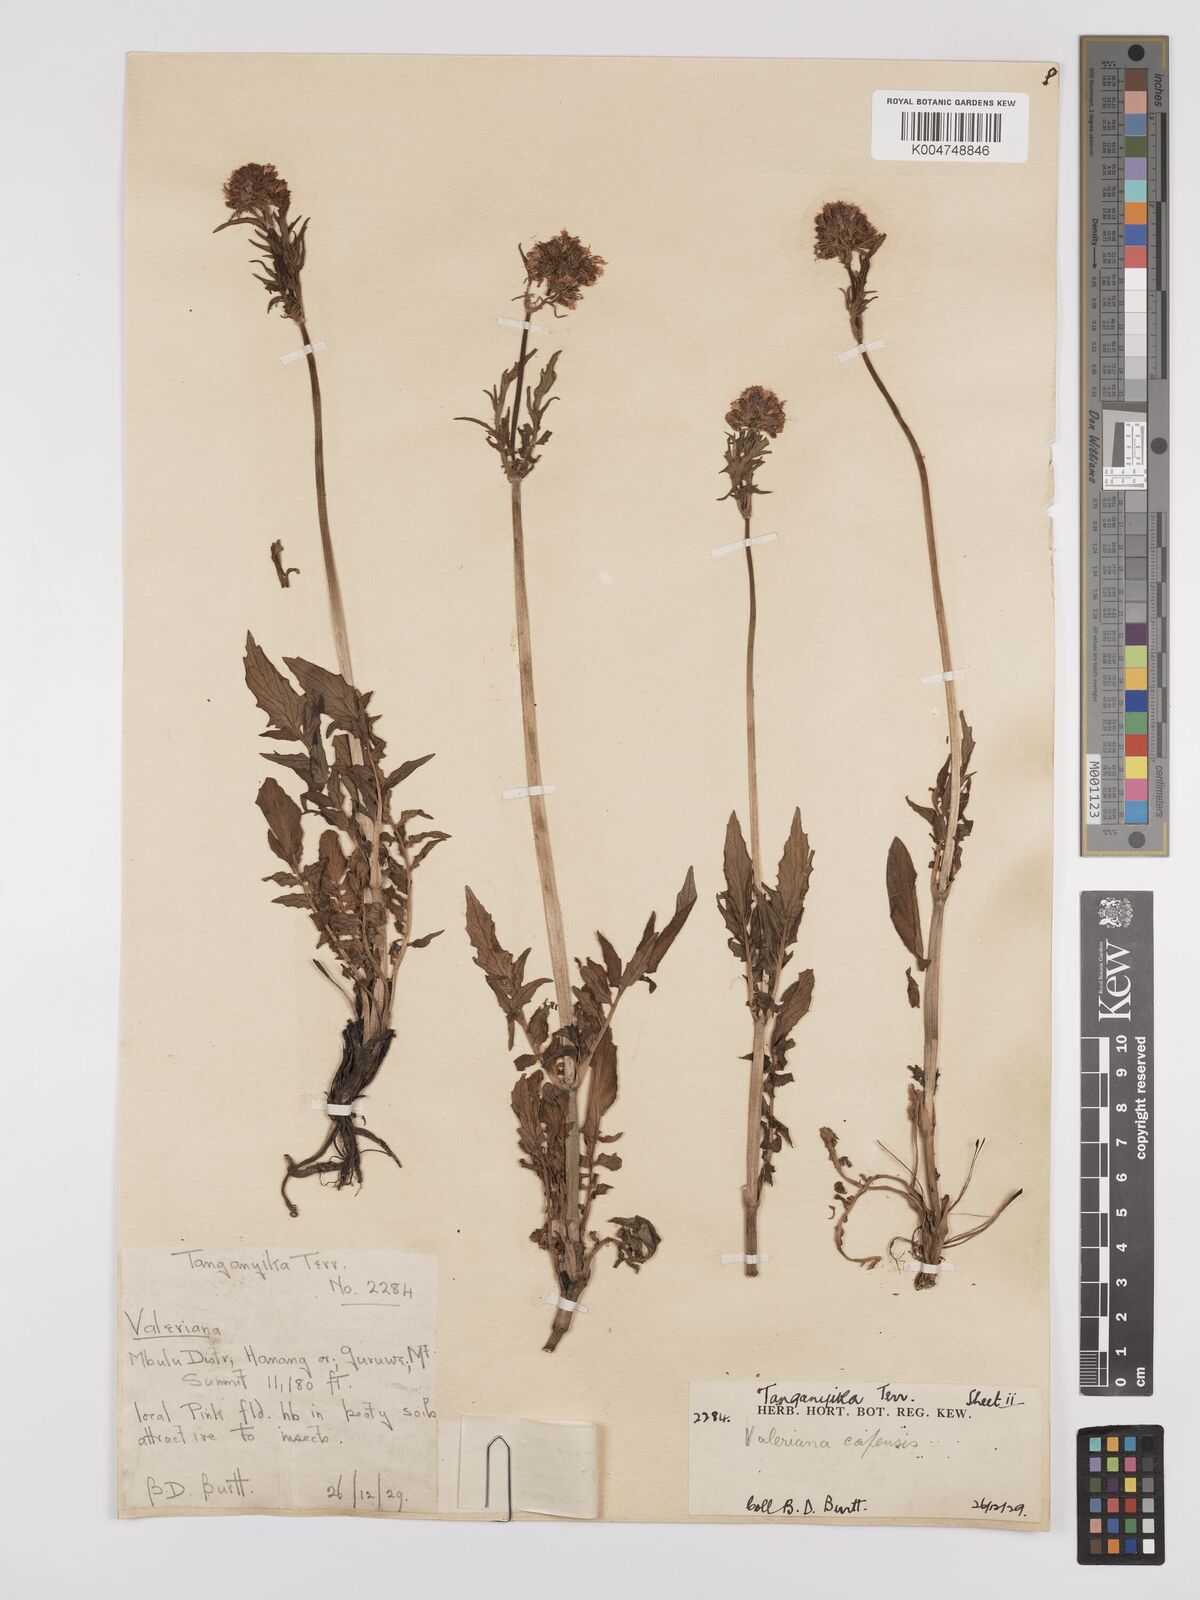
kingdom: Plantae
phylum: Tracheophyta
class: Magnoliopsida
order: Dipsacales
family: Caprifoliaceae
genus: Valeriana
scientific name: Valeriana capensis
